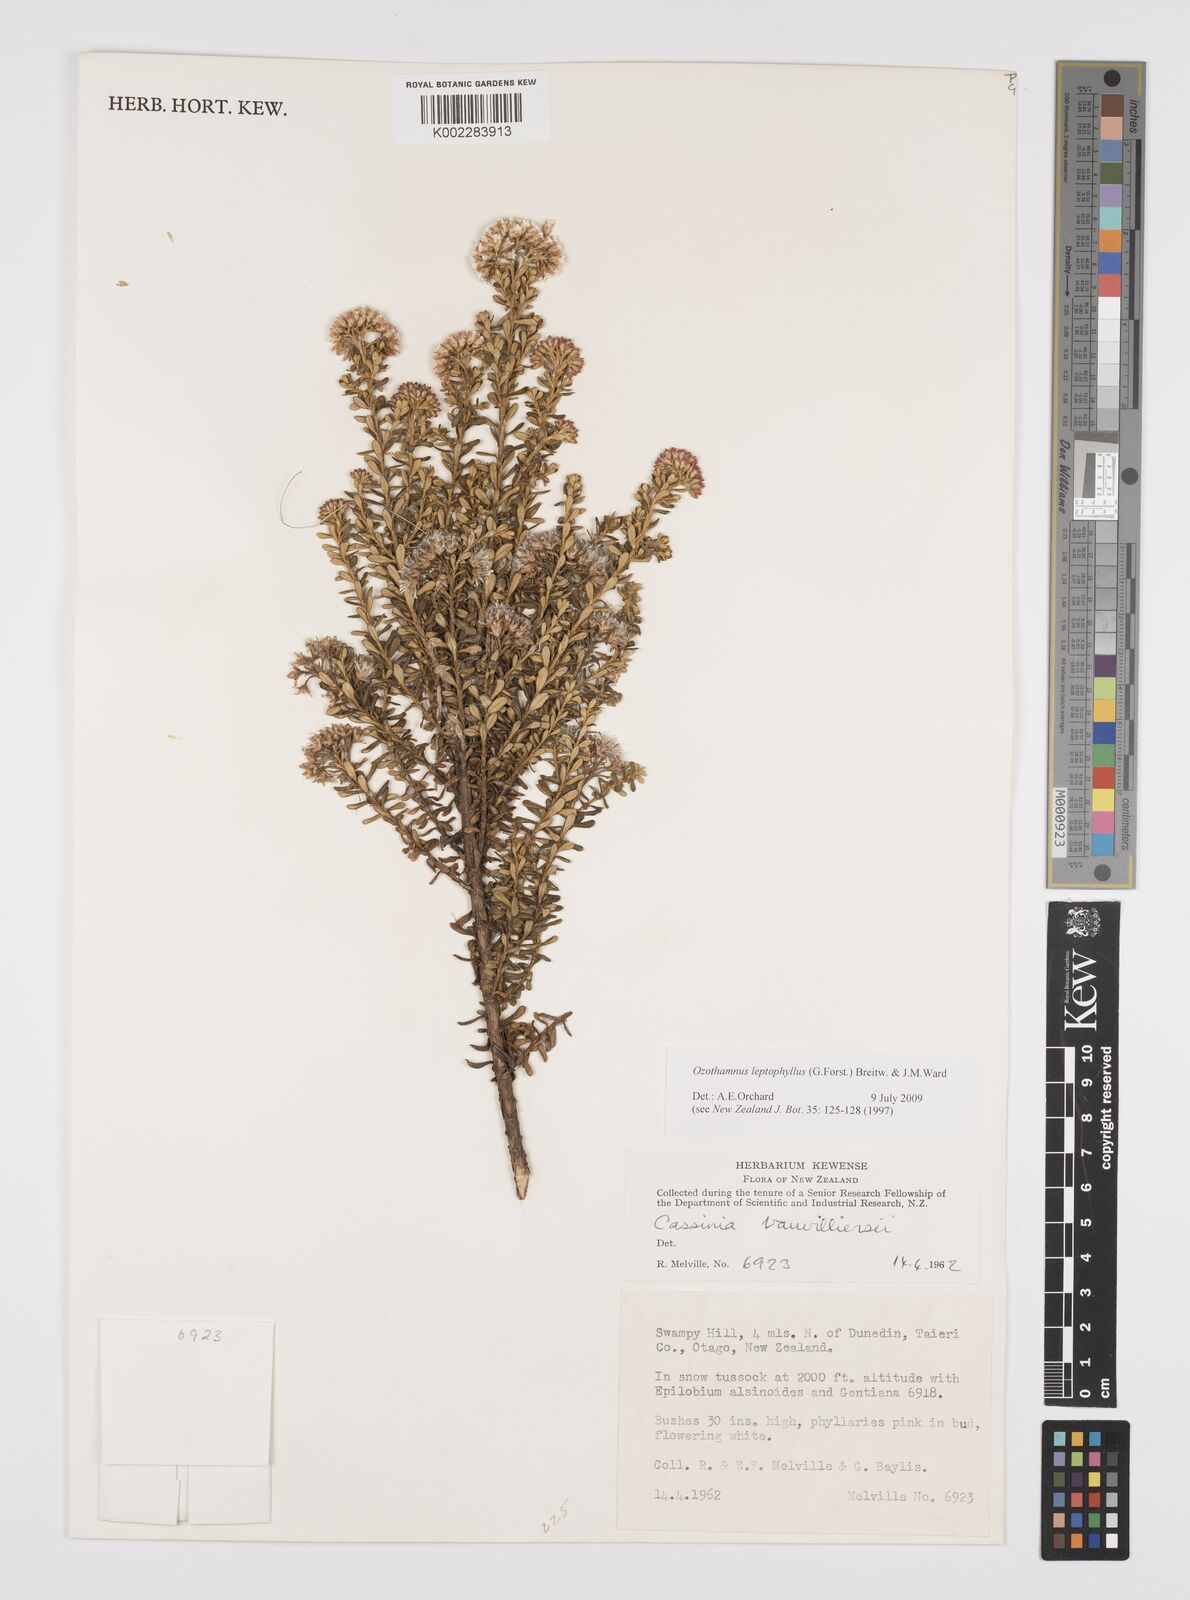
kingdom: Plantae
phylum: Tracheophyta
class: Magnoliopsida
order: Asterales
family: Asteraceae
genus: Ozothamnus
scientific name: Ozothamnus leptophyllus
